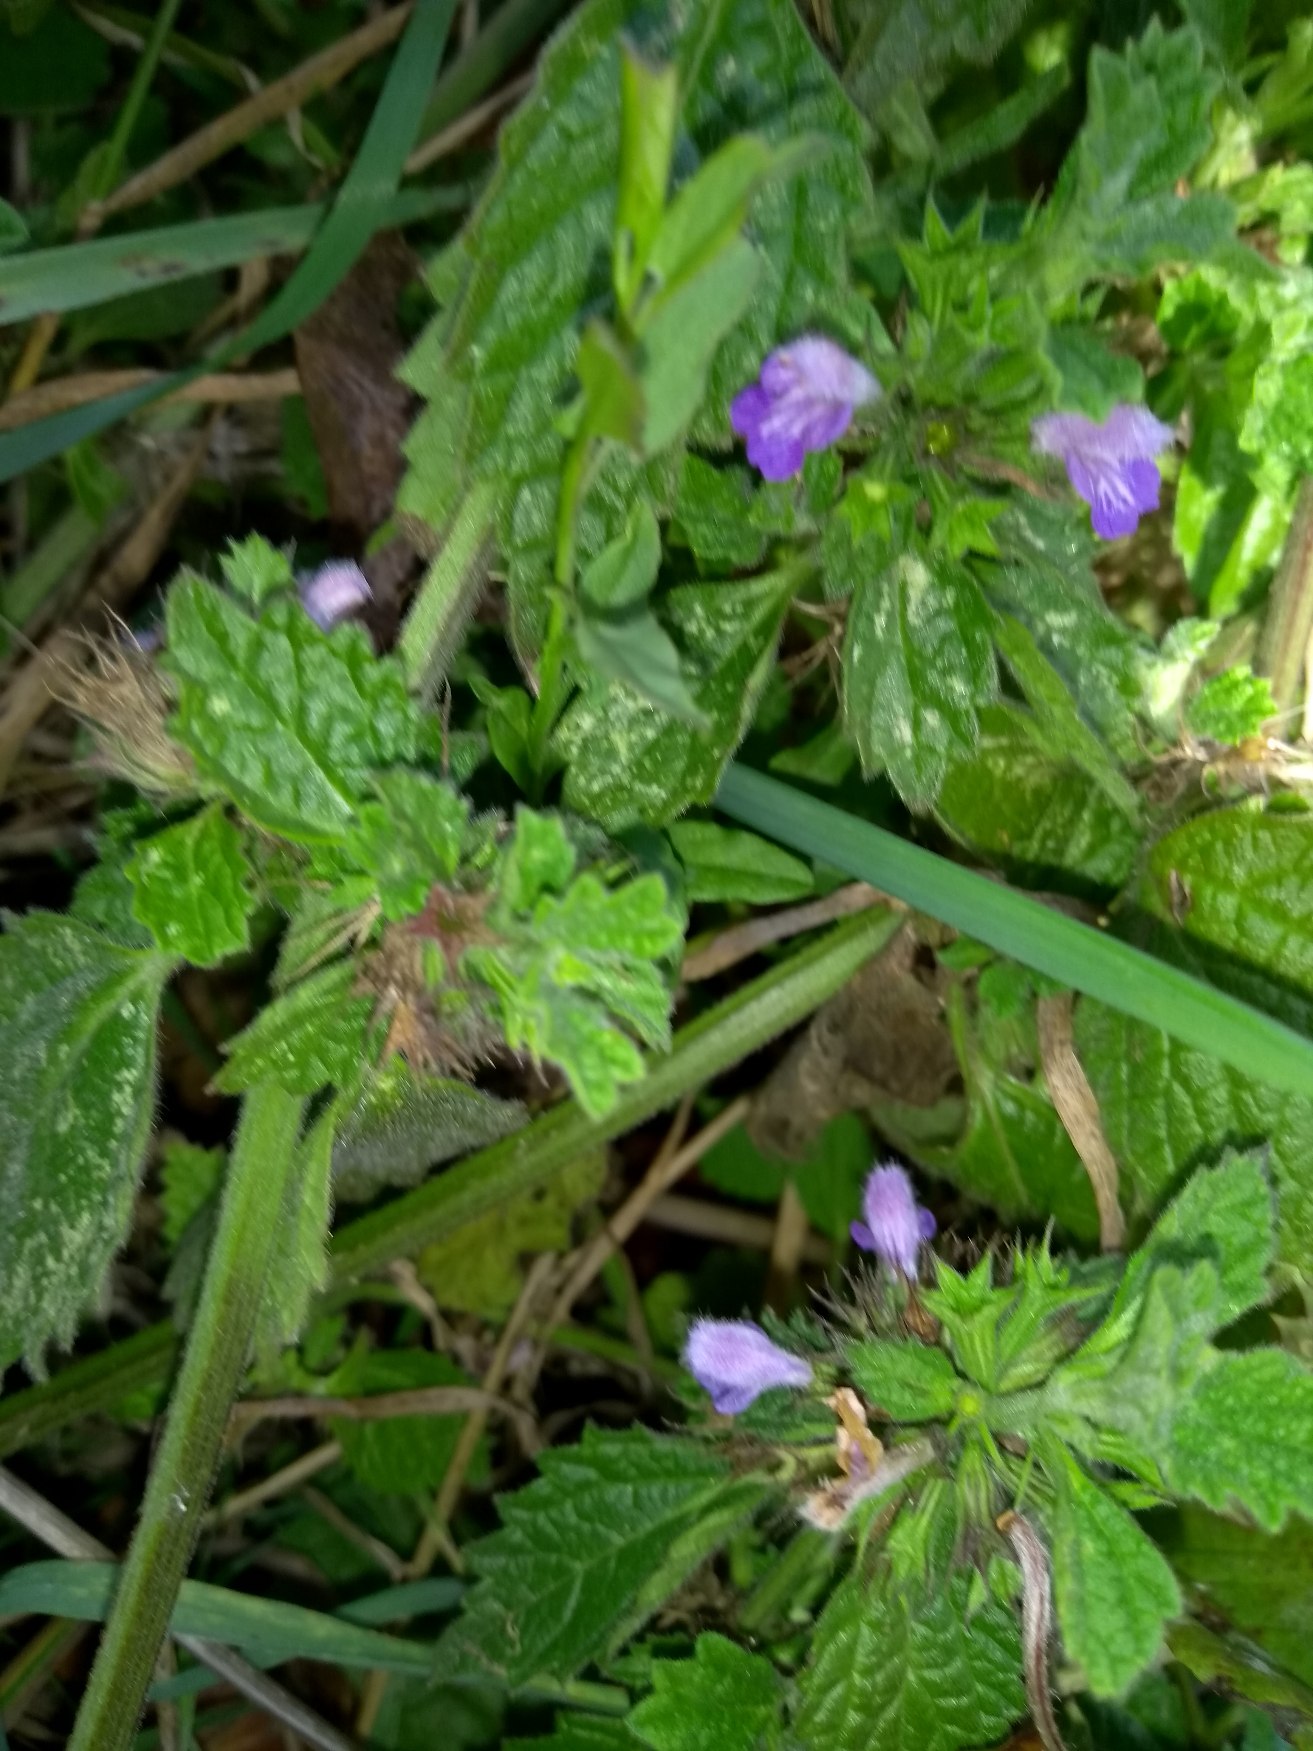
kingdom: Plantae
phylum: Tracheophyta
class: Magnoliopsida
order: Lamiales
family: Lamiaceae
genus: Ballota
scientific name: Ballota nigra
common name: Tandbæger
